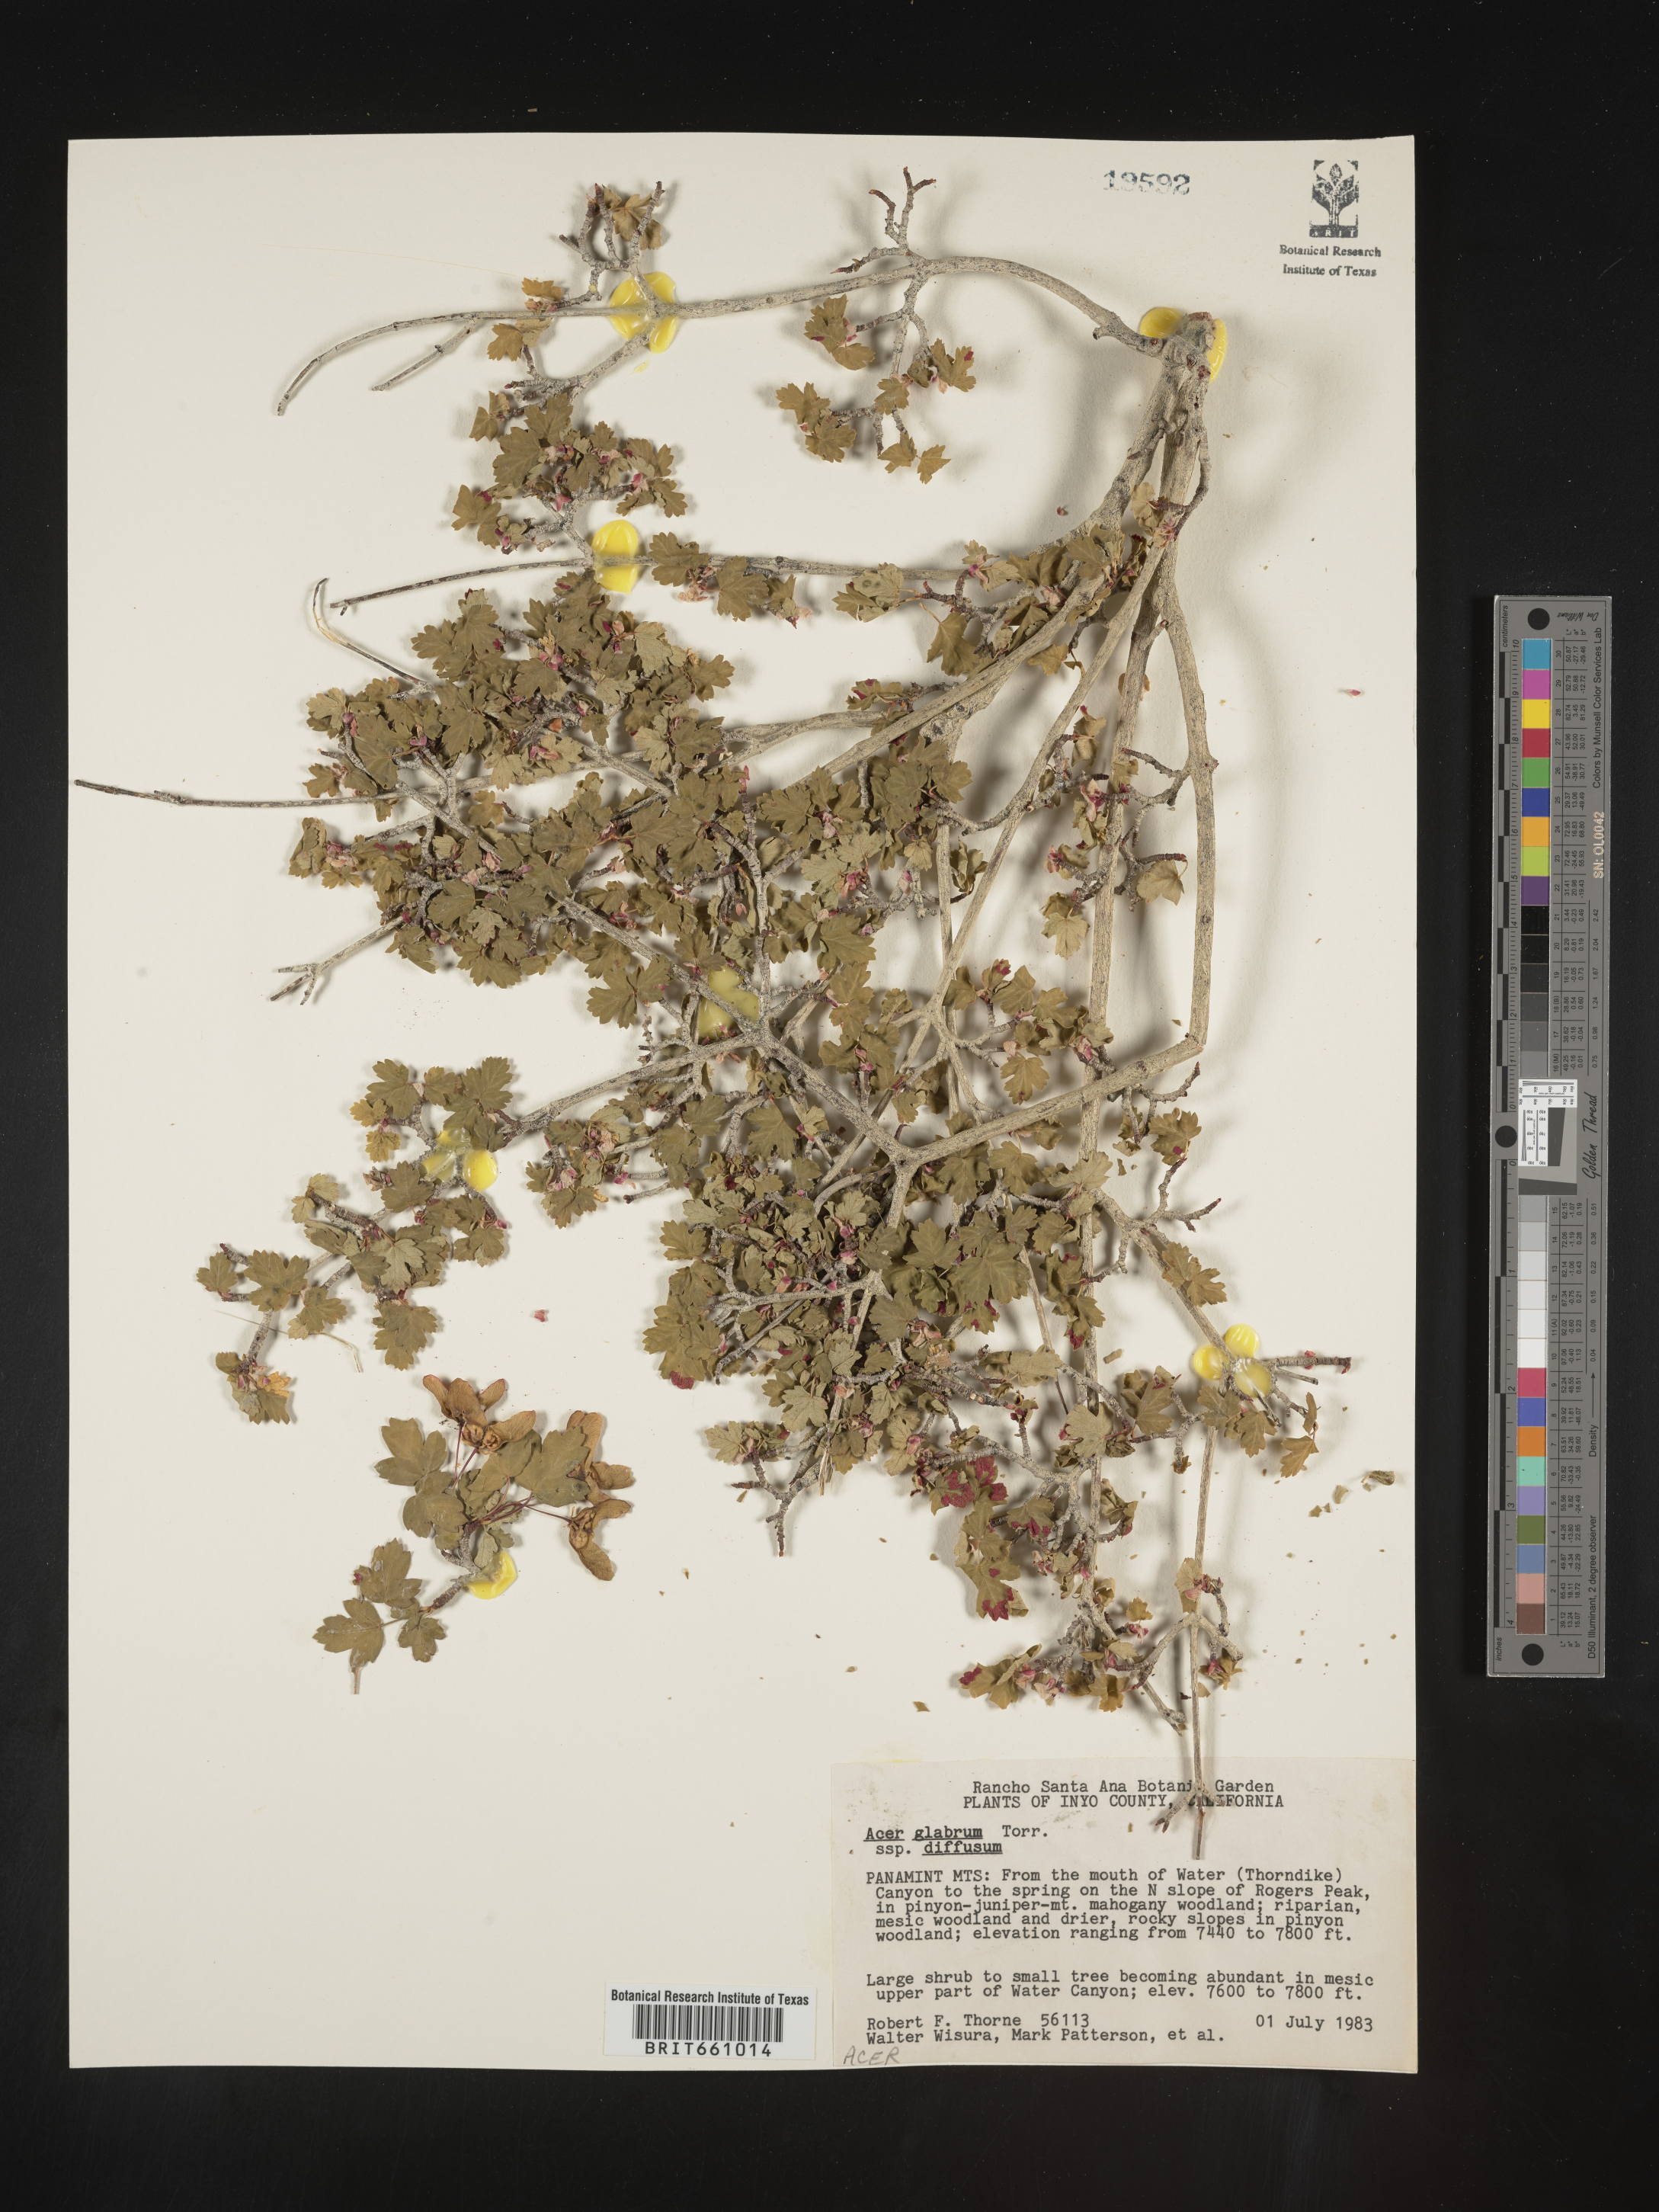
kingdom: Plantae
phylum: Tracheophyta
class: Magnoliopsida
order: Sapindales
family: Sapindaceae
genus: Acer
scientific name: Acer glabrum
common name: Rocky mountain maple
